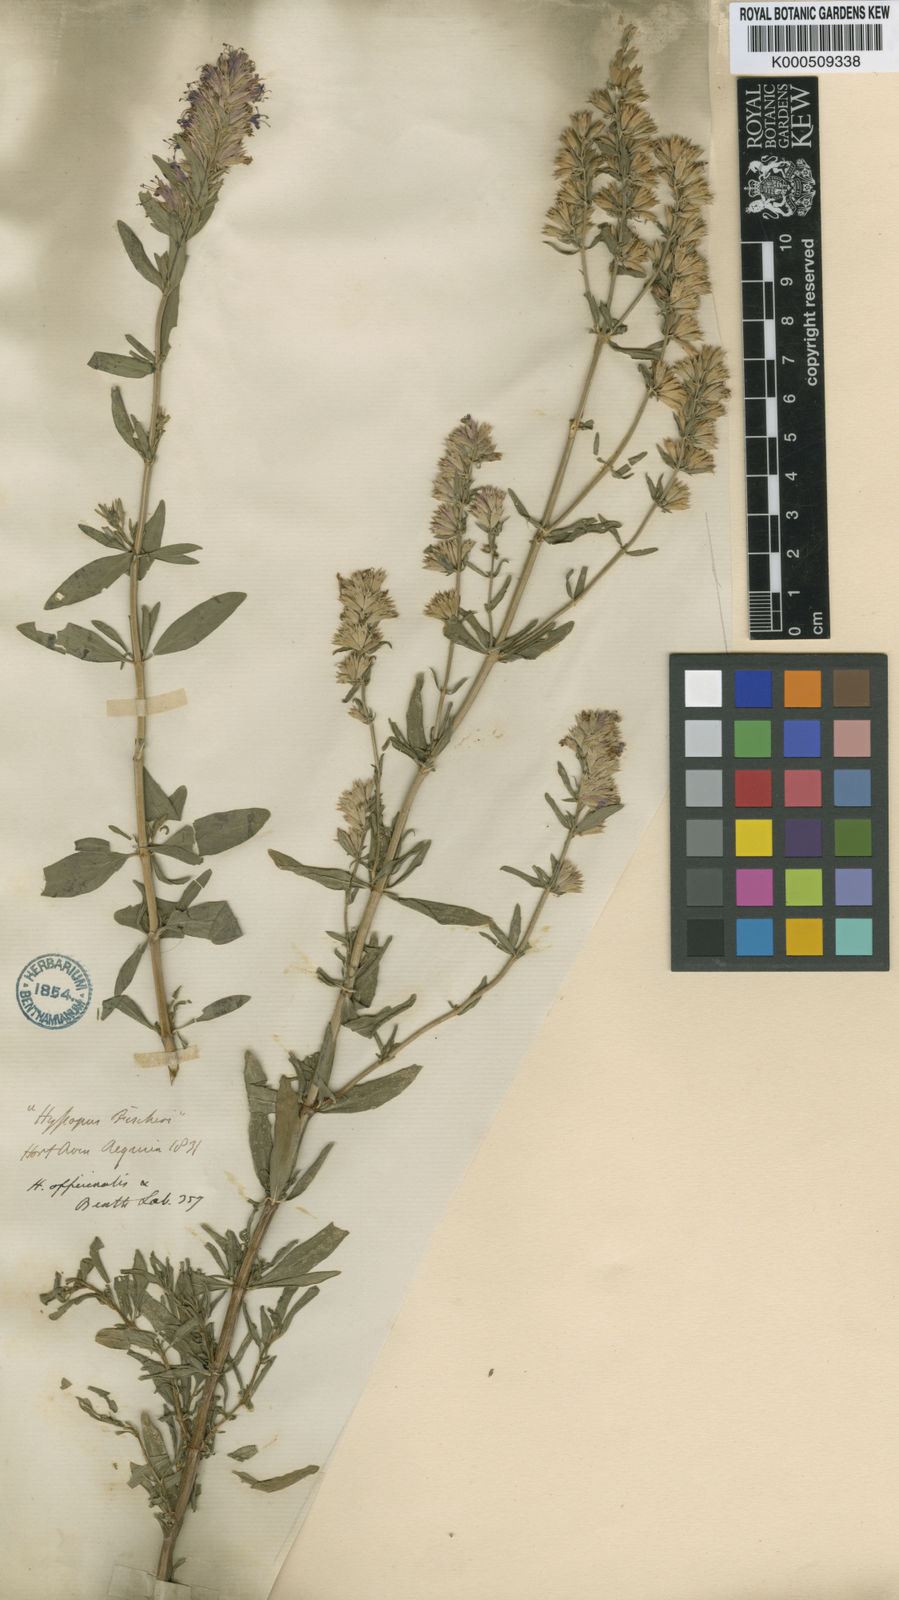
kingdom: Plantae
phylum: Tracheophyta
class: Magnoliopsida
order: Lamiales
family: Lamiaceae
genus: Hyssopus
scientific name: Hyssopus officinalis
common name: Hyssop
